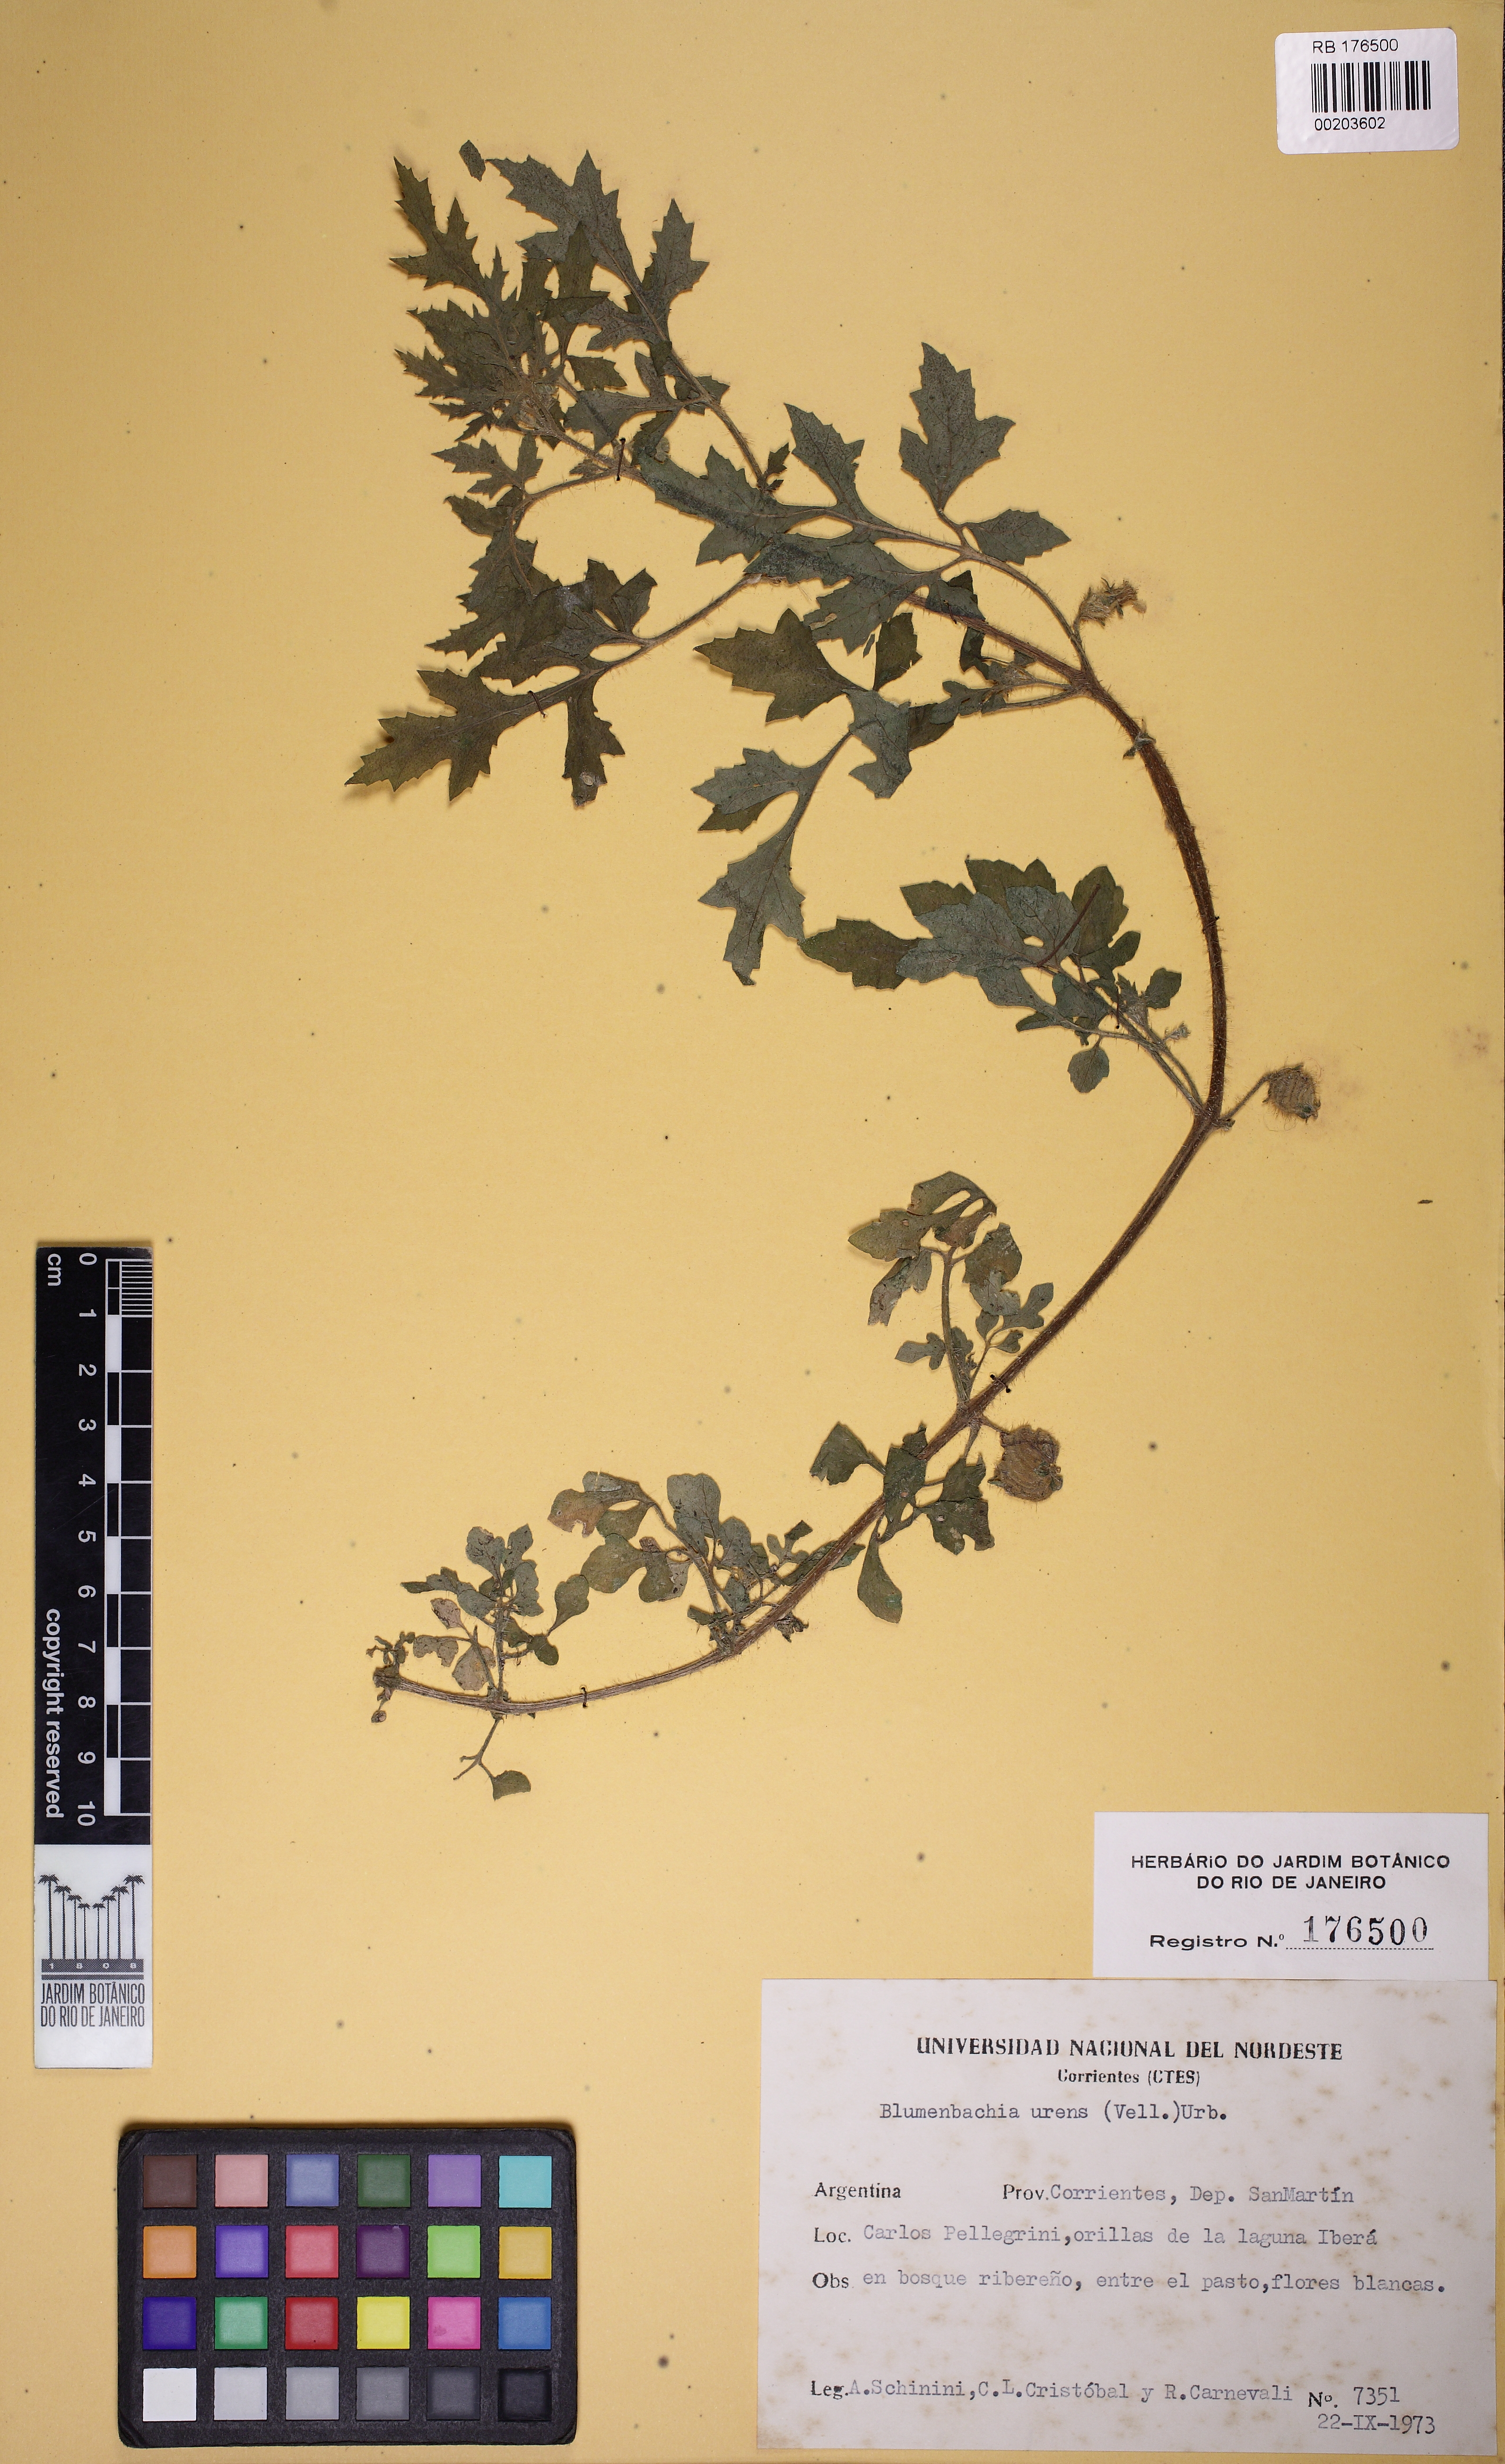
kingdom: Plantae
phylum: Tracheophyta
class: Magnoliopsida
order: Cornales
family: Loasaceae
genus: Blumenbachia
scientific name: Blumenbachia latifolia
